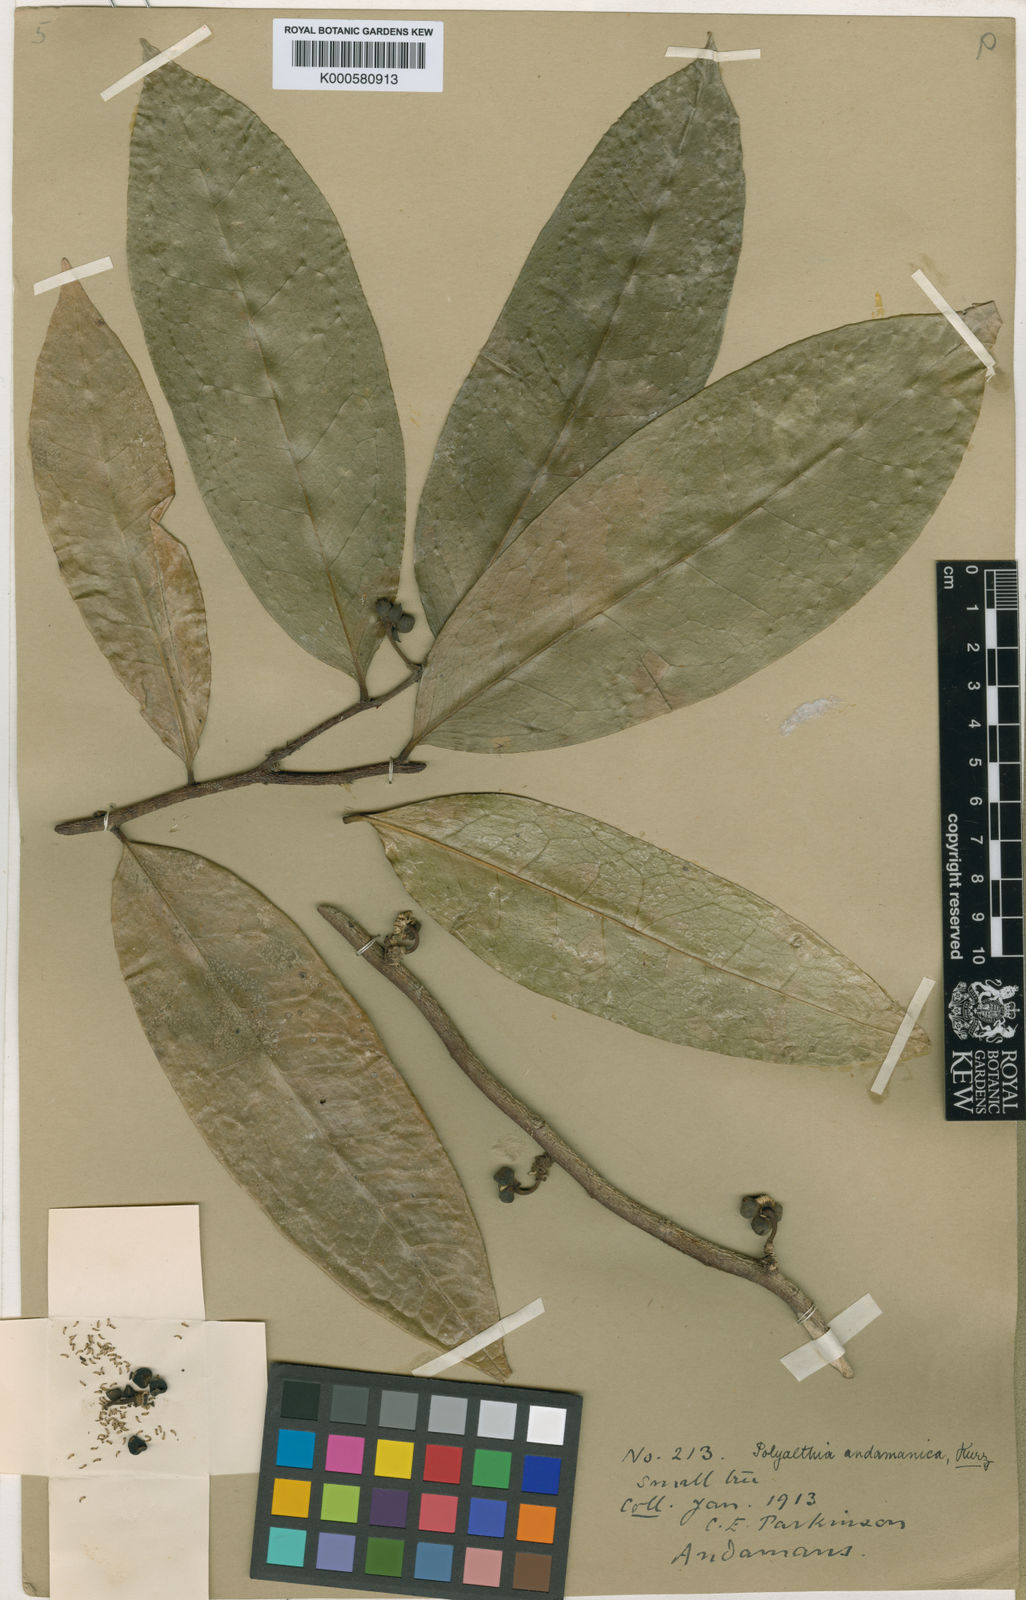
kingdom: Plantae
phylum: Tracheophyta
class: Magnoliopsida
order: Magnoliales
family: Annonaceae
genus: Marsypopetalum
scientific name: Marsypopetalum crassum
